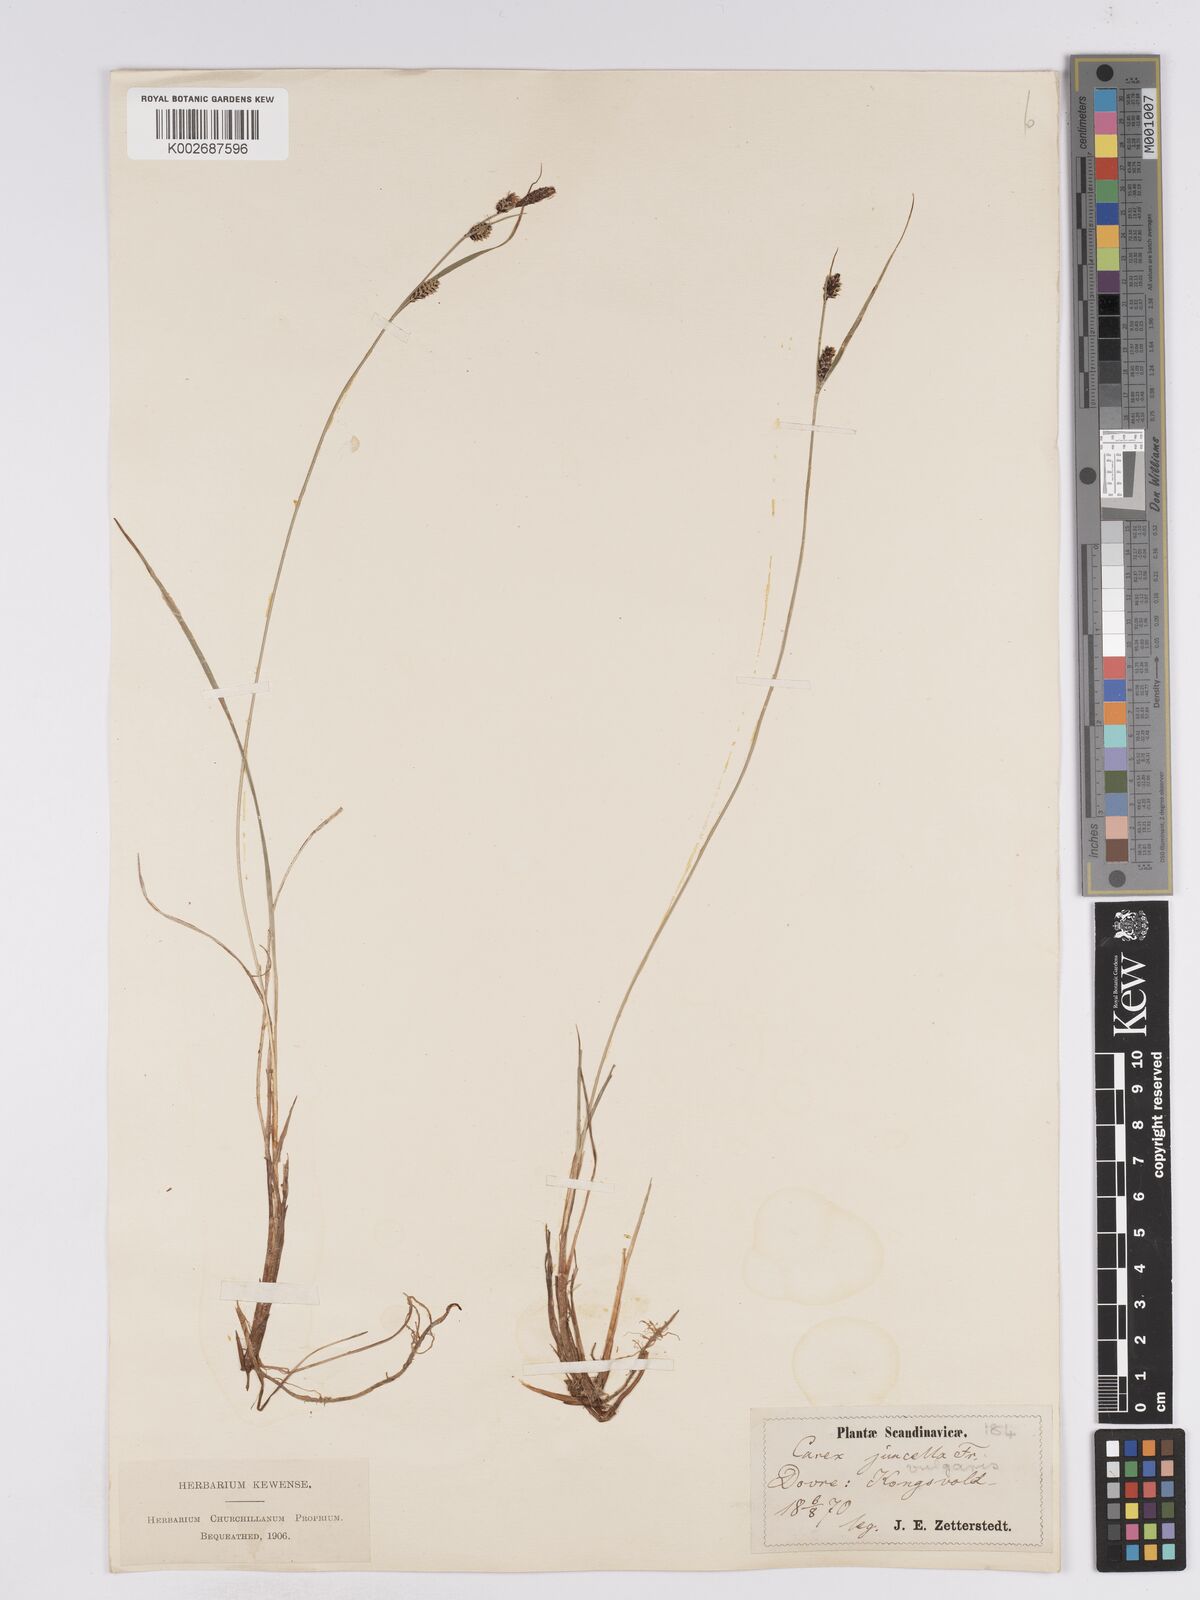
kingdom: Plantae
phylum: Tracheophyta
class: Liliopsida
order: Poales
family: Cyperaceae
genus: Carex
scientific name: Carex
